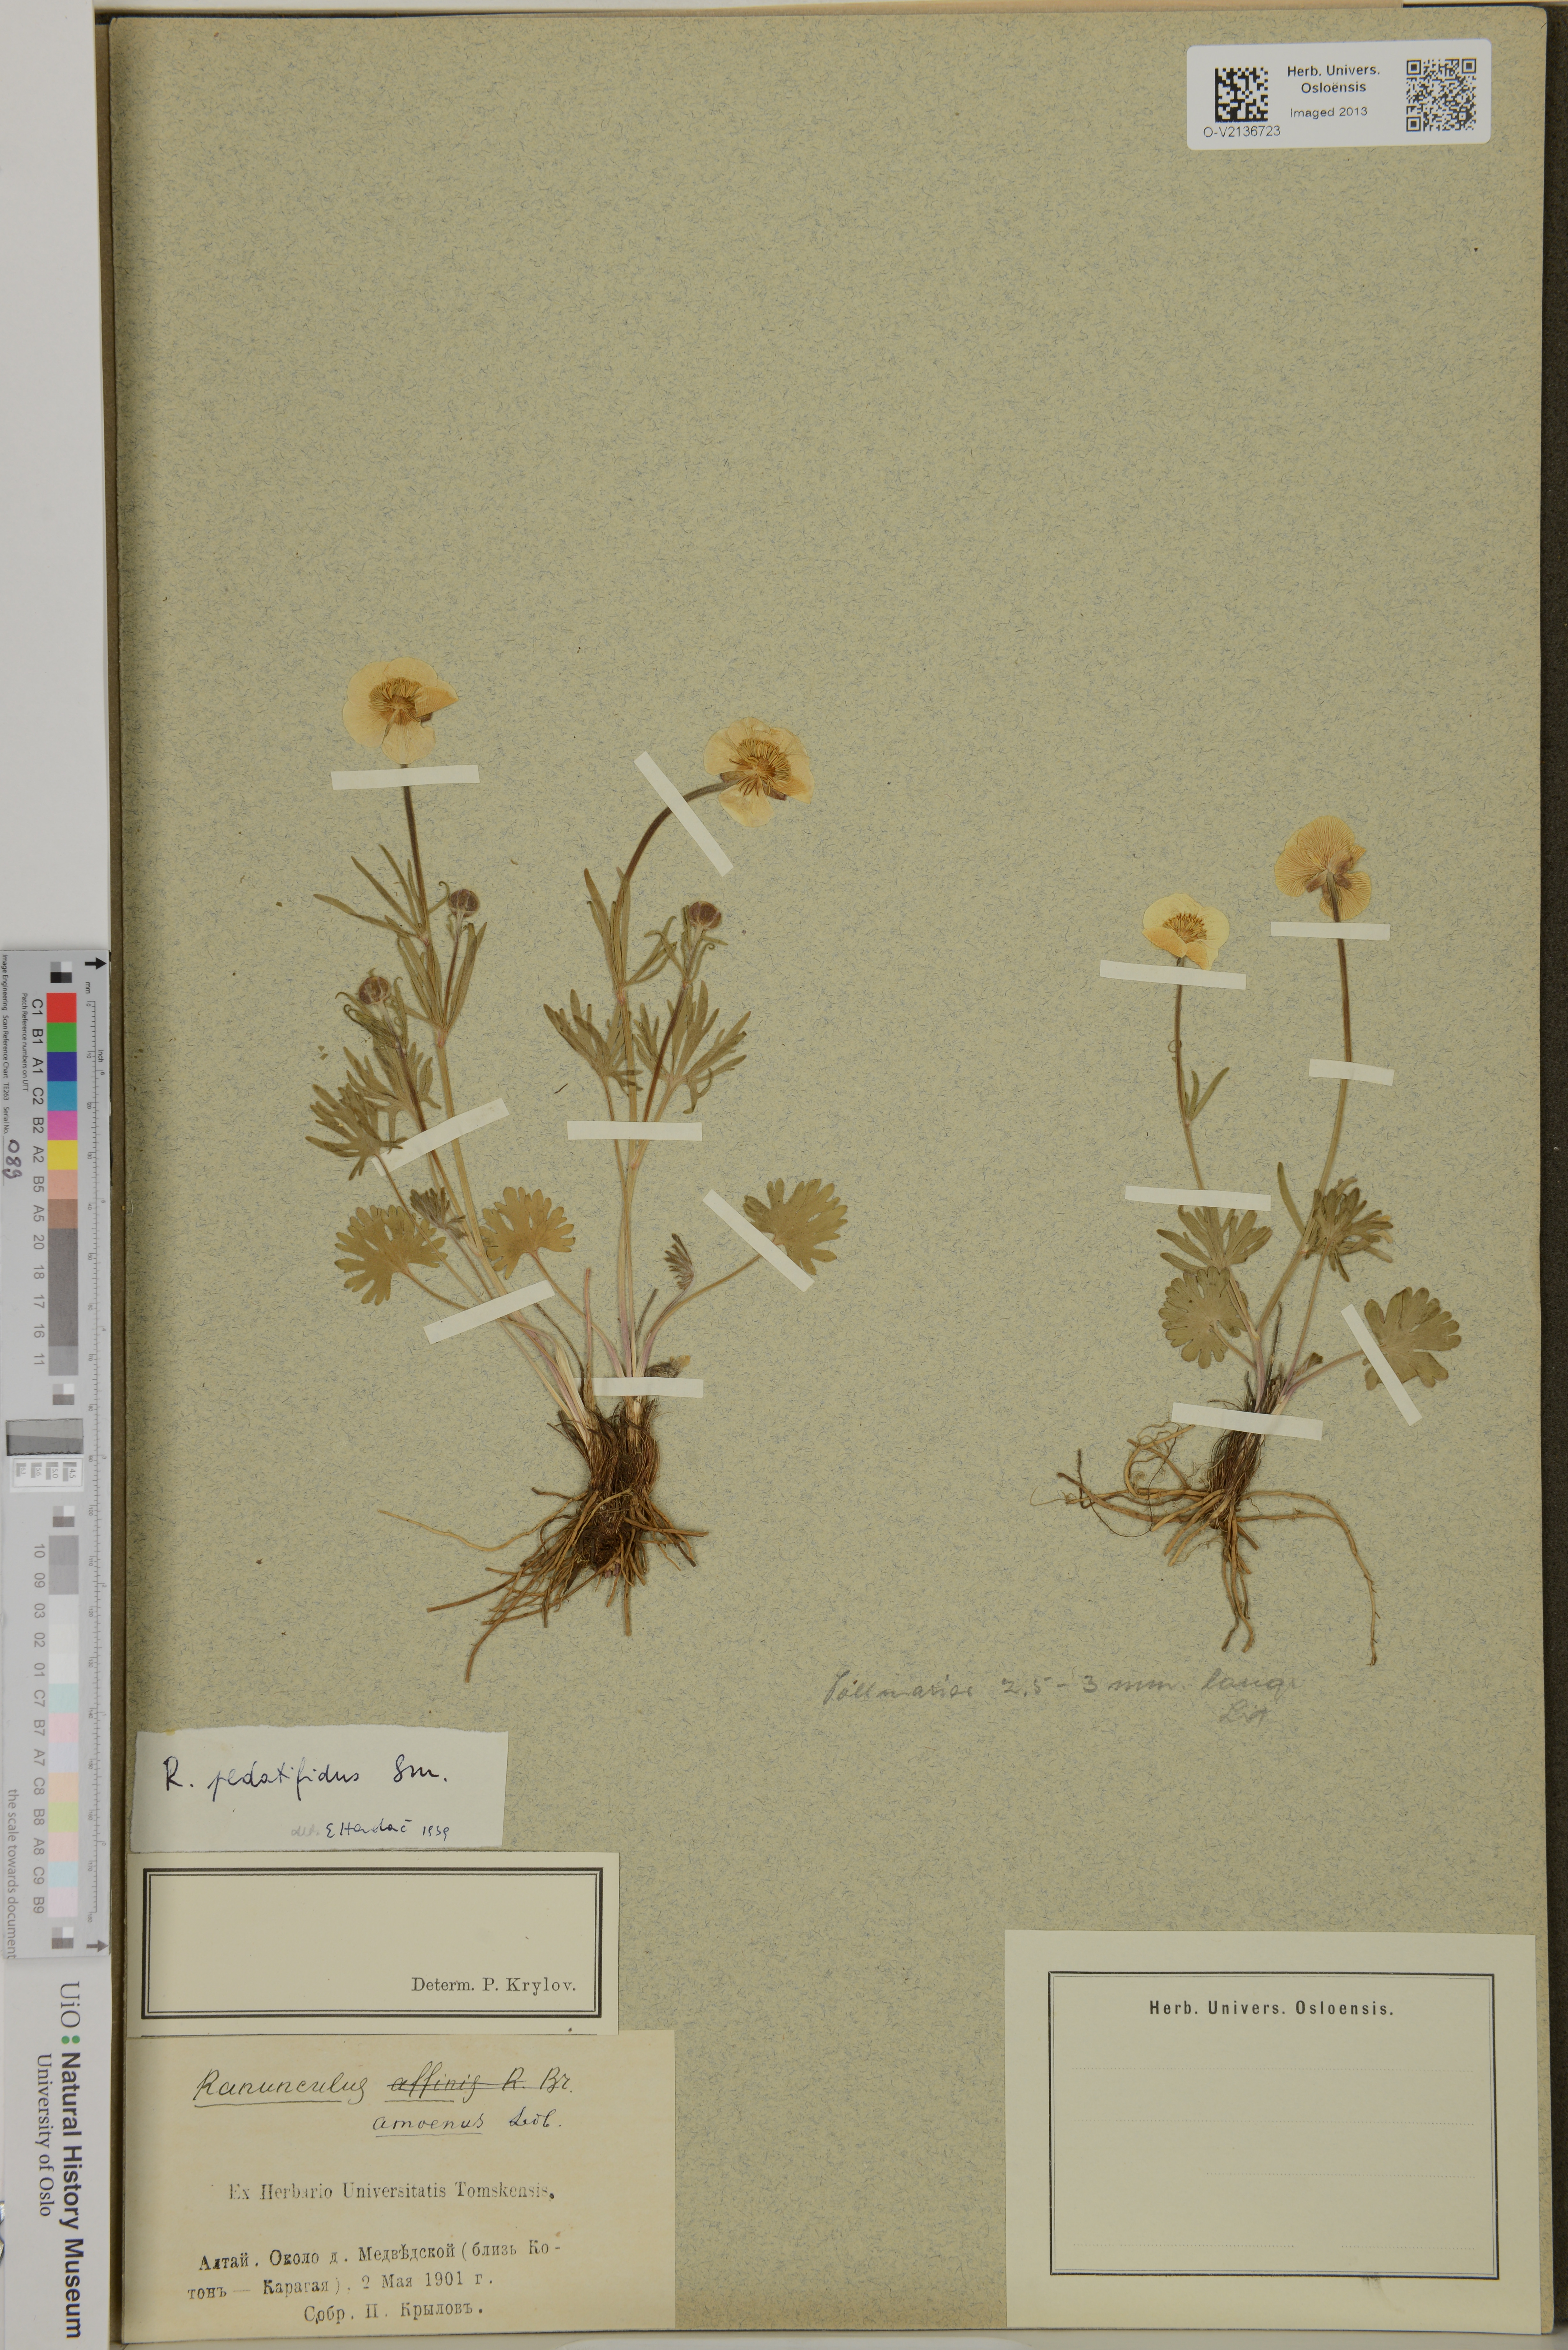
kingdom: Plantae
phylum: Tracheophyta
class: Magnoliopsida
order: Ranunculales
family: Ranunculaceae
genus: Ranunculus
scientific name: Ranunculus
